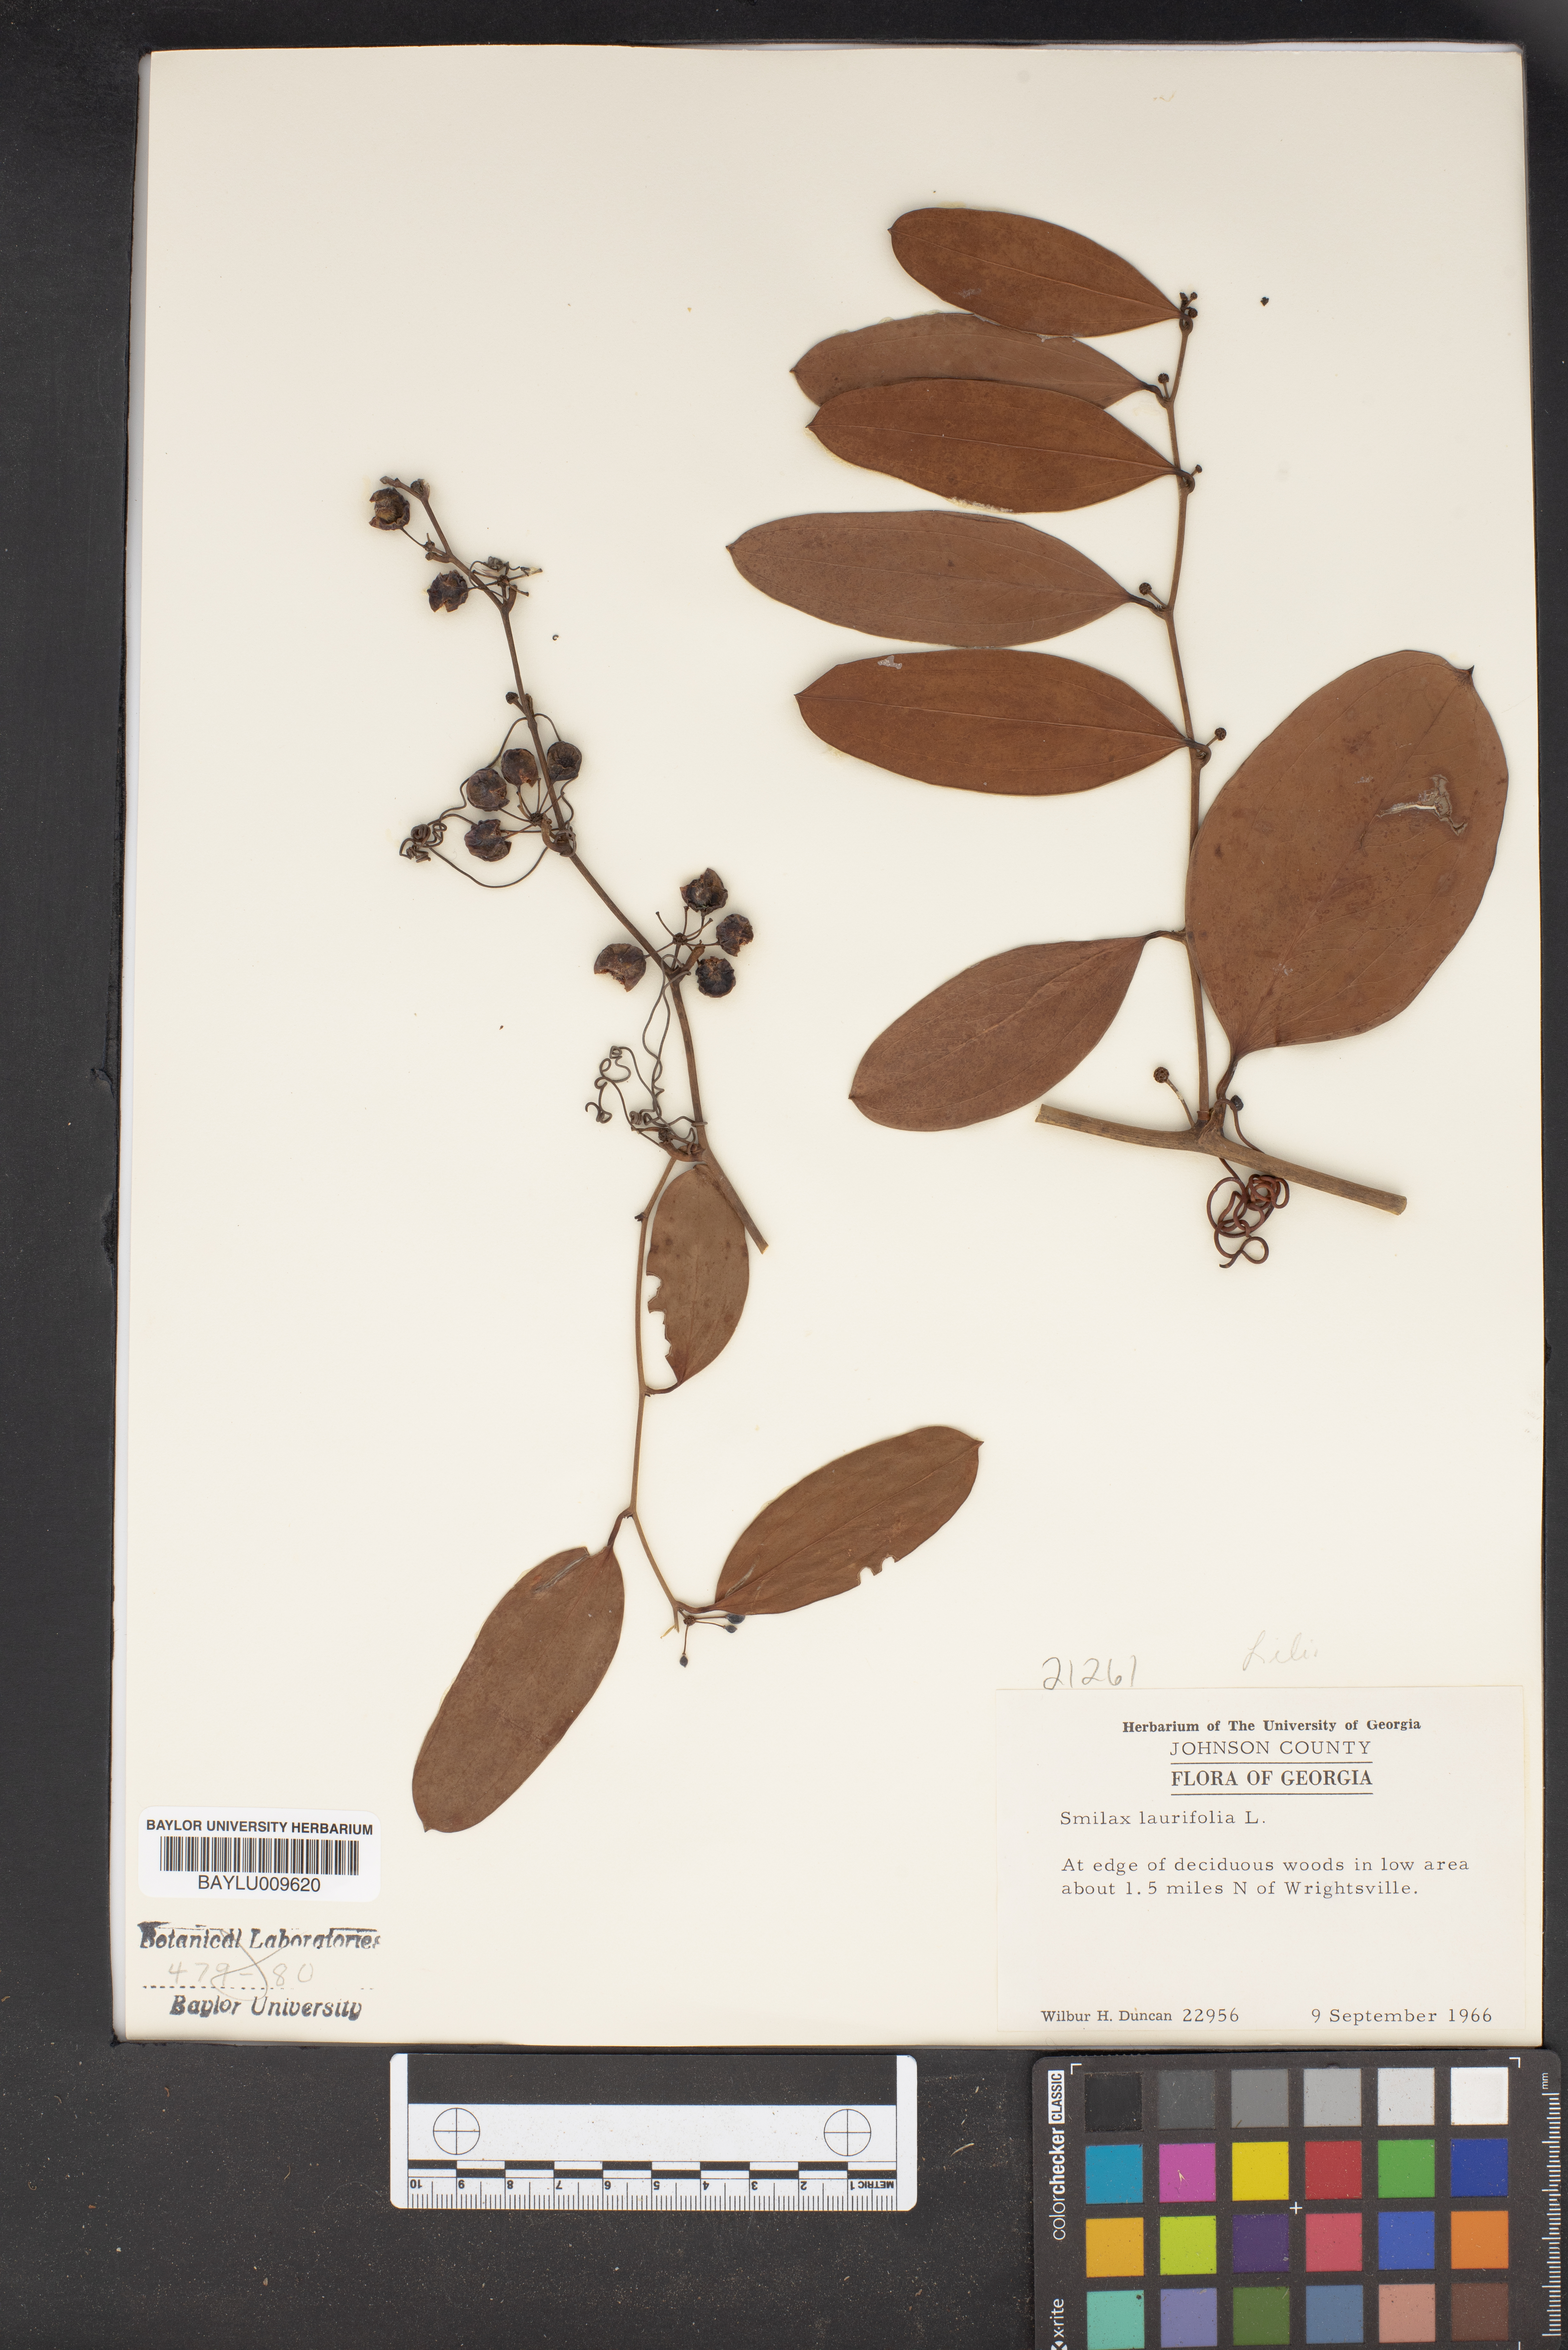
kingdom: Plantae
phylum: Tracheophyta
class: Liliopsida
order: Liliales
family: Smilacaceae
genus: Smilax
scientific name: Smilax laurifolia
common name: Bamboovine
